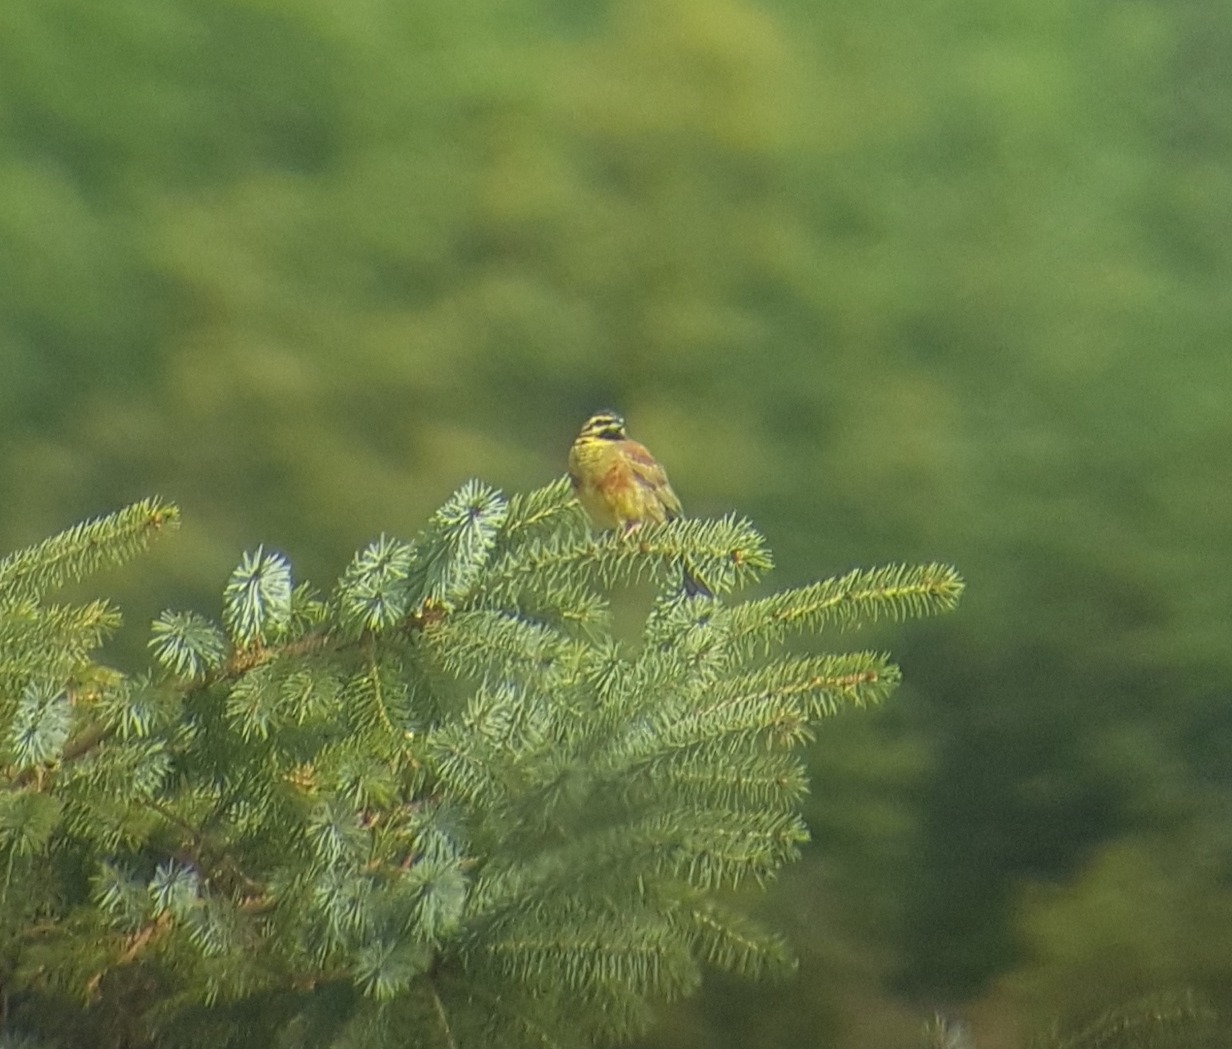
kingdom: Animalia
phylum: Chordata
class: Aves
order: Passeriformes
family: Emberizidae
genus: Emberiza
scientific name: Emberiza cirlus
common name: Gærdeværling
